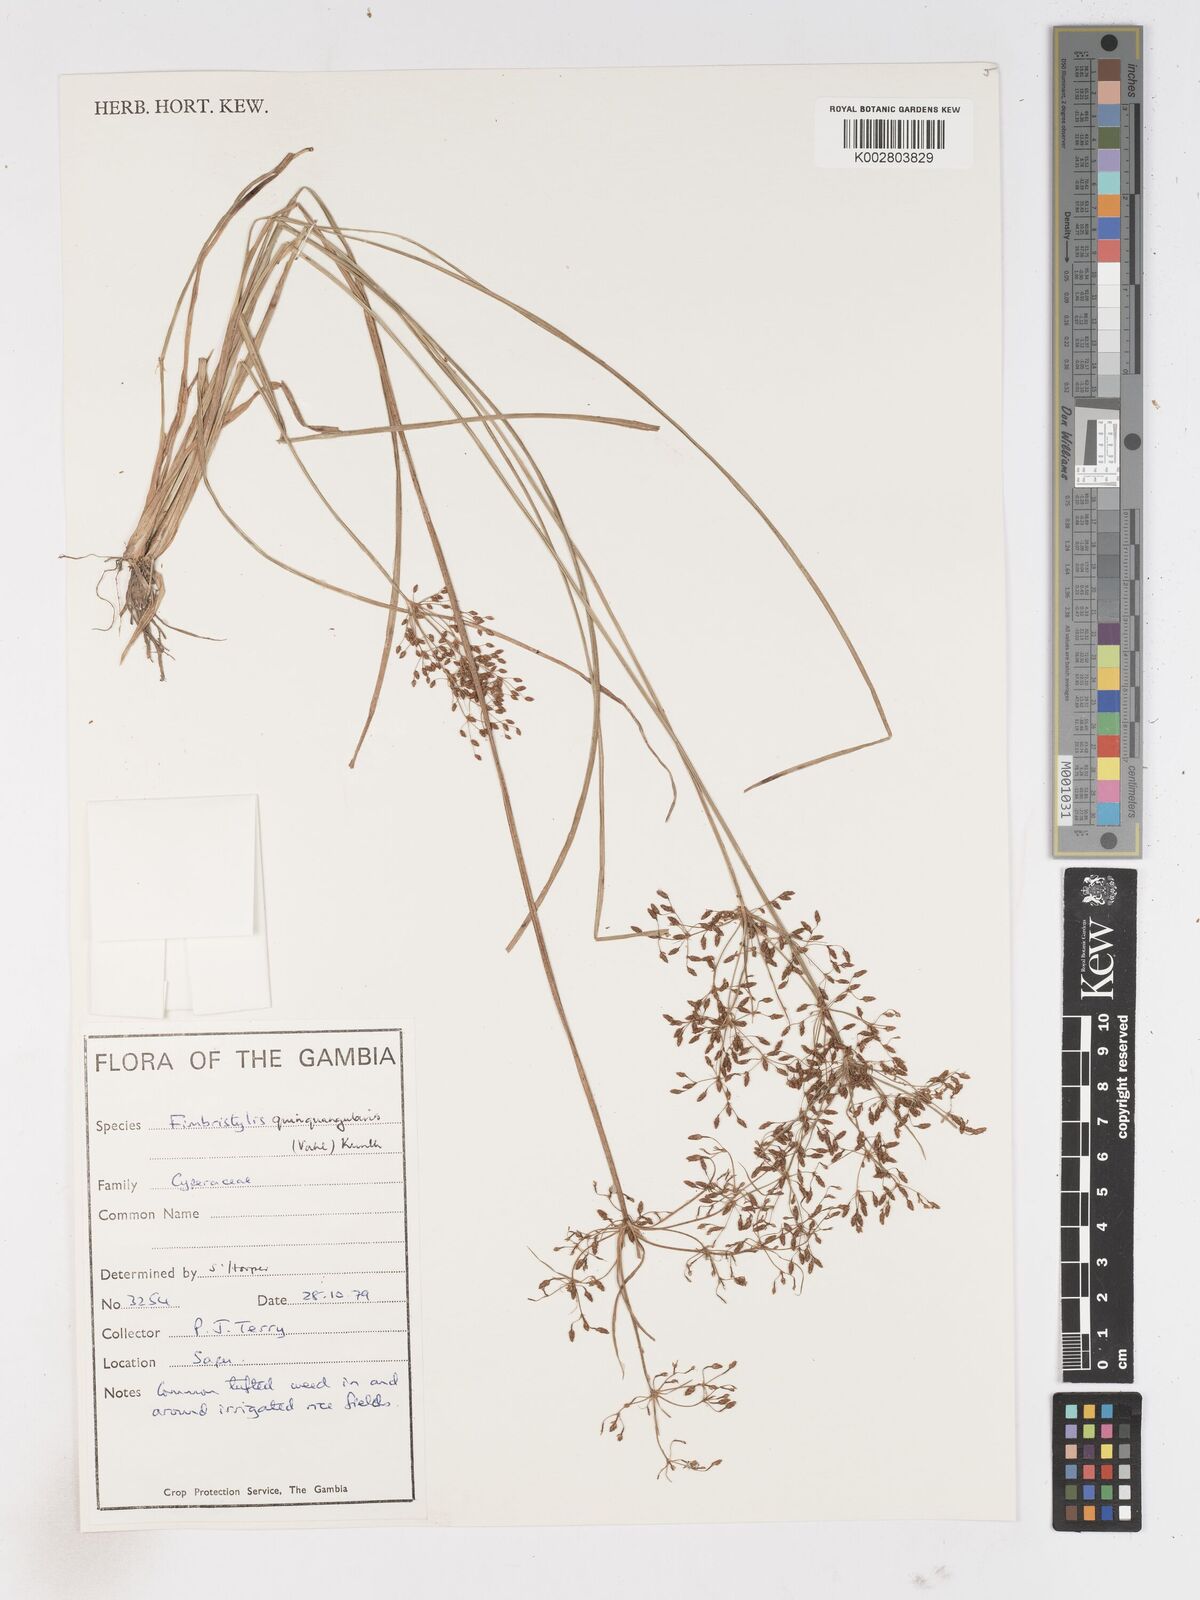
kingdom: Plantae
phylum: Tracheophyta
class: Liliopsida
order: Poales
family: Cyperaceae
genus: Fimbristylis
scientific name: Fimbristylis quinquangularis
